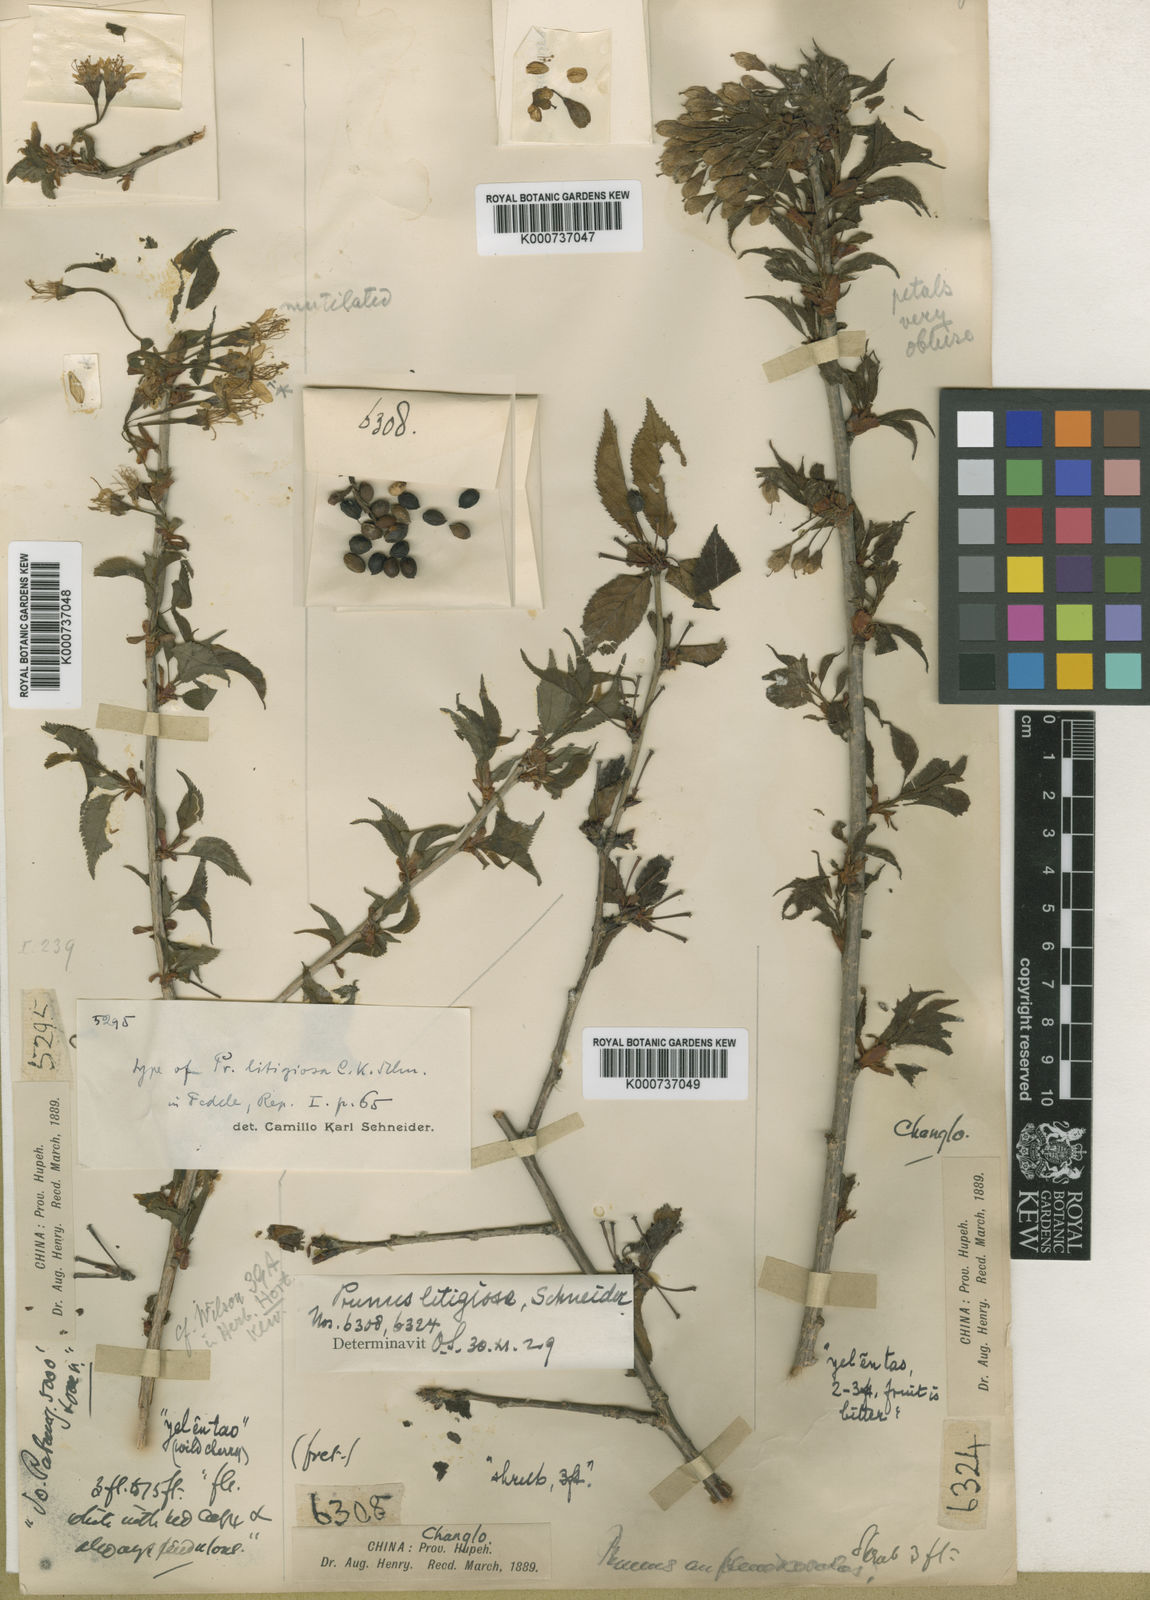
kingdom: Plantae
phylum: Tracheophyta
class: Magnoliopsida
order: Rosales
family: Rosaceae
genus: Prunus
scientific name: Prunus clarofolia
